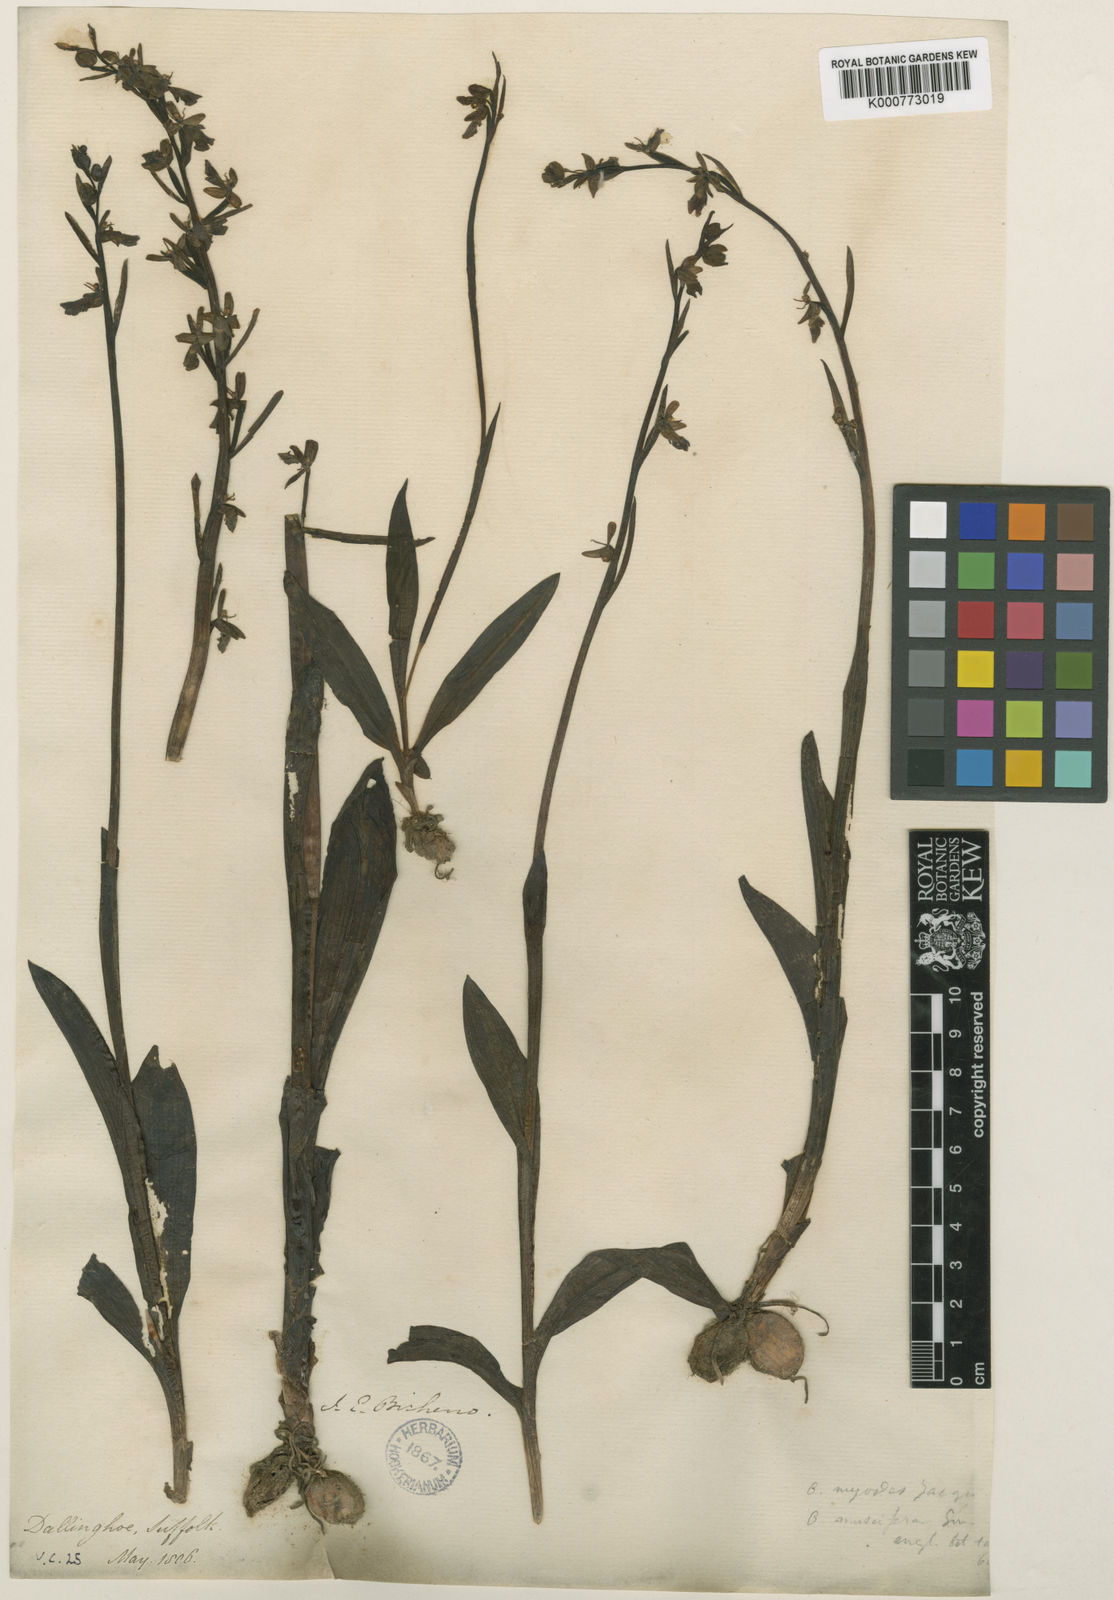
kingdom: Plantae
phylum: Tracheophyta
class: Liliopsida
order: Asparagales
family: Orchidaceae
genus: Ophrys
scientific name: Ophrys insectifera
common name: Fly orchid
